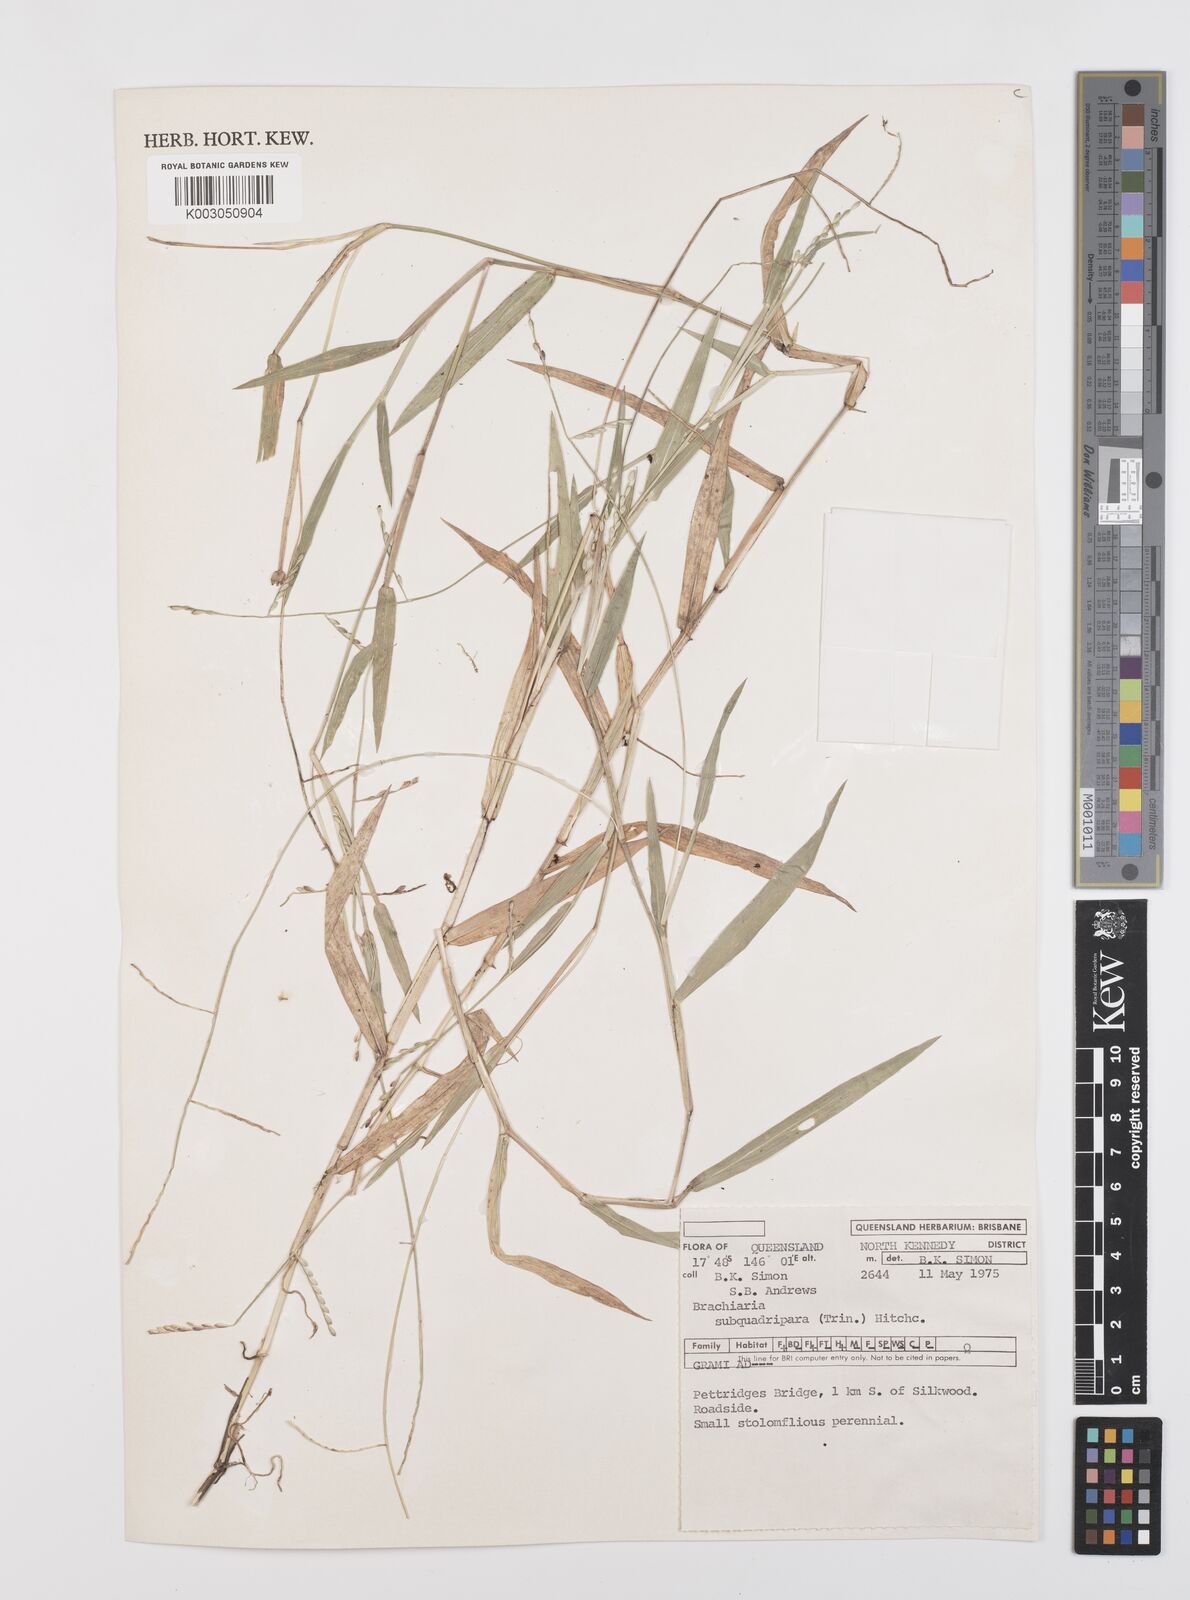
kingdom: Plantae
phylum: Tracheophyta
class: Liliopsida
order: Poales
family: Poaceae
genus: Urochloa
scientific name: Urochloa subquadripara
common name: Armgrass millet
